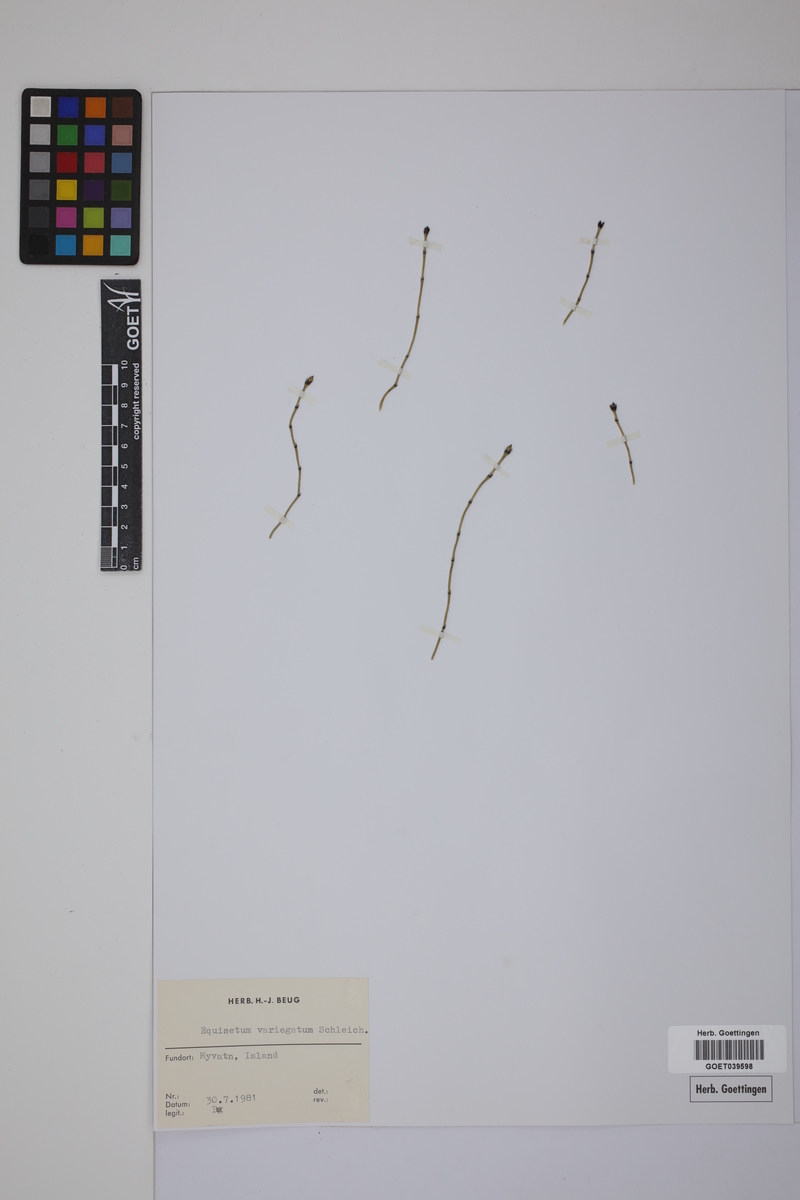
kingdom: Plantae
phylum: Tracheophyta
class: Polypodiopsida
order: Equisetales
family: Equisetaceae
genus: Equisetum
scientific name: Equisetum variegatum
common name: Variegated horsetail
